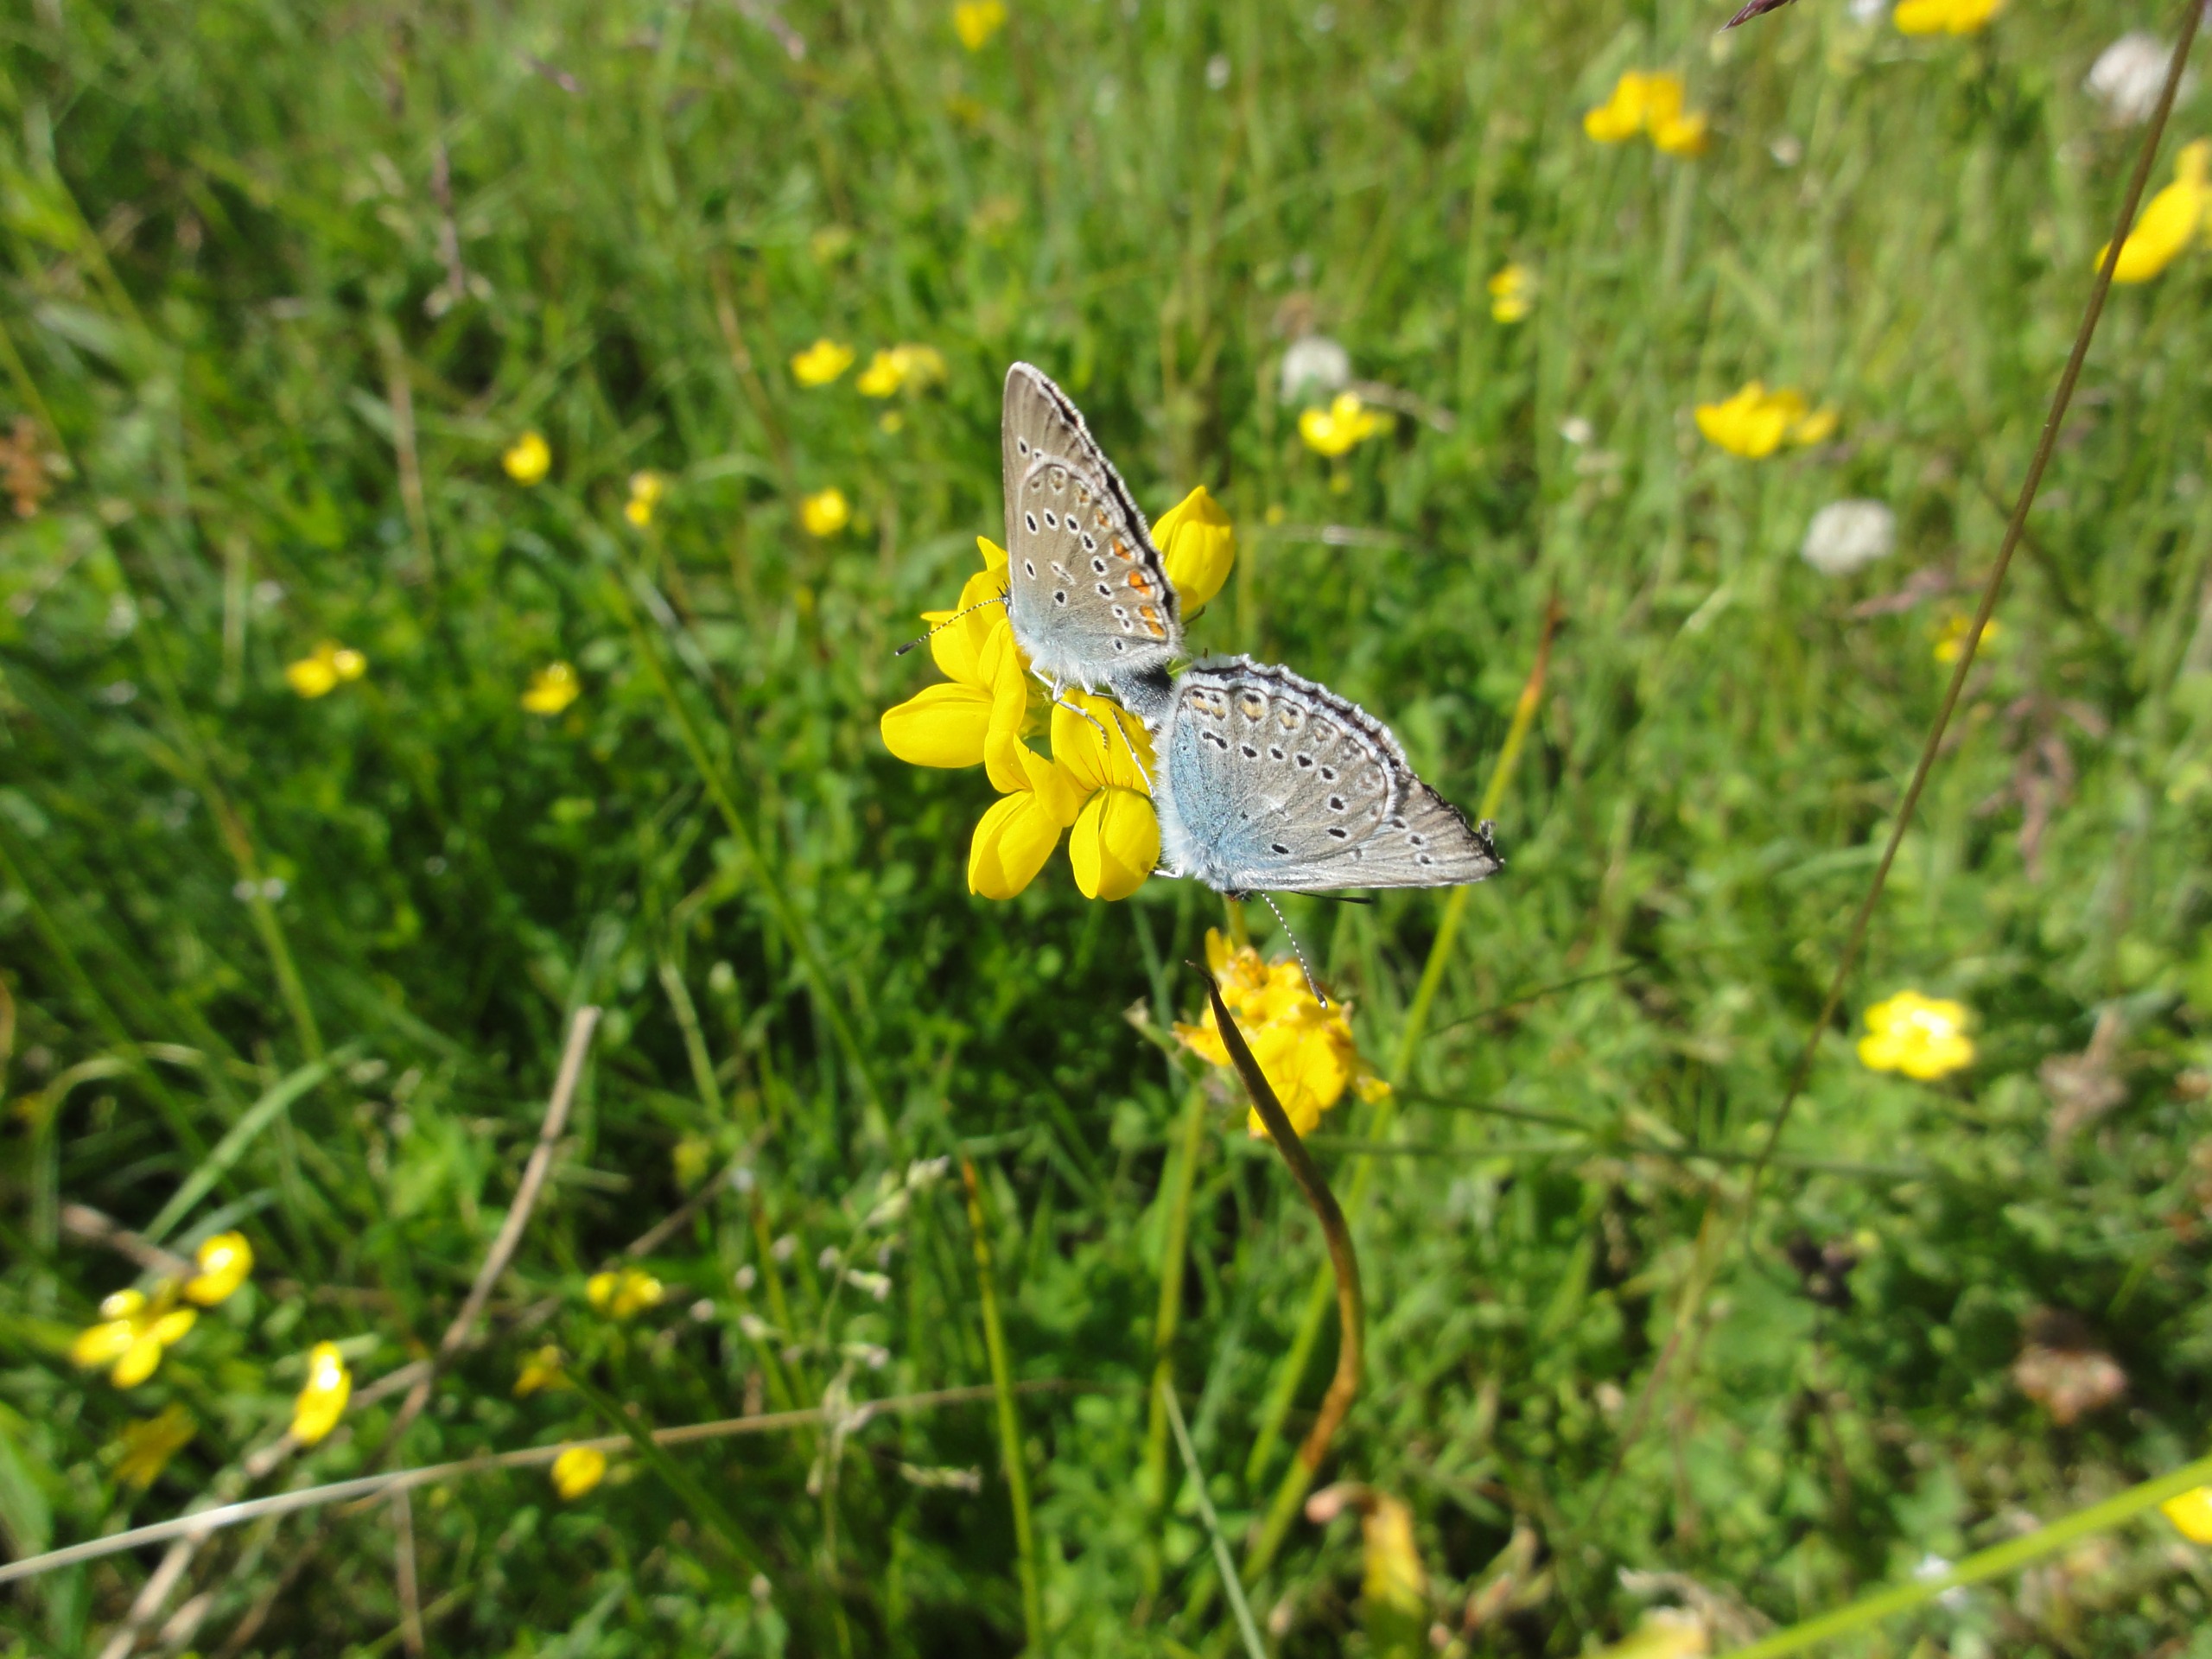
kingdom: Animalia
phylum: Arthropoda
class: Insecta
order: Lepidoptera
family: Lycaenidae
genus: Plebejus
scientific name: Plebejus amanda
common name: Isblåfugl
